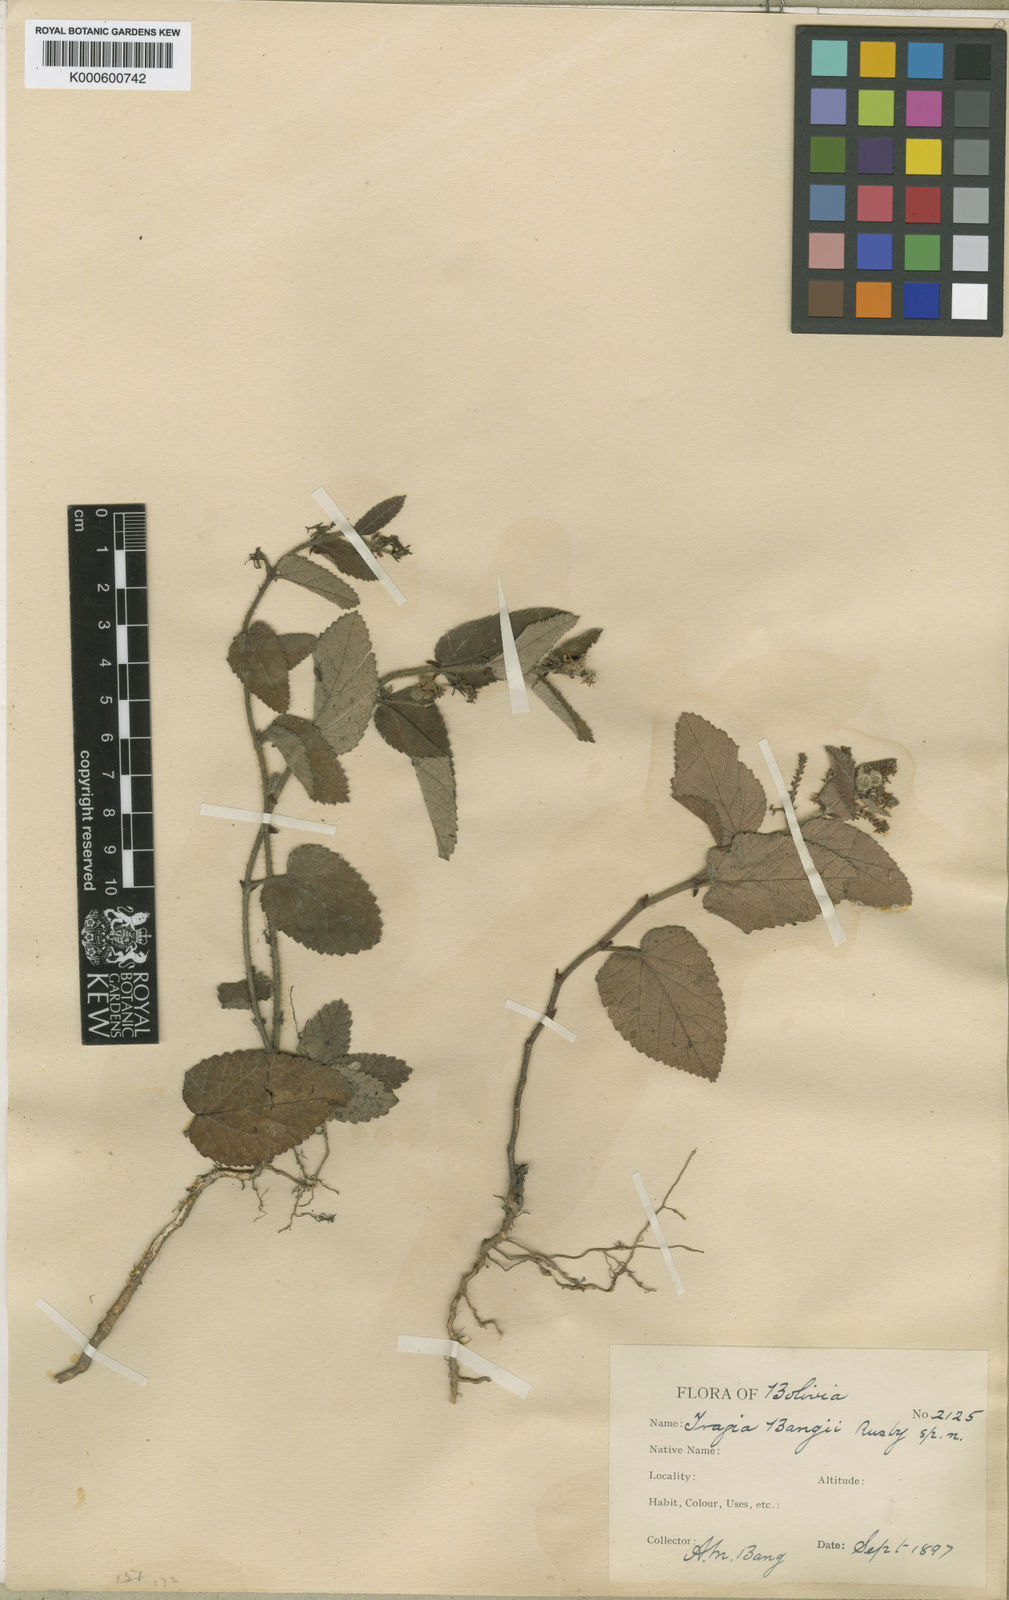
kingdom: Plantae
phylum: Tracheophyta
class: Magnoliopsida
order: Malpighiales
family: Euphorbiaceae
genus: Tragia
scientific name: Tragia melochioides
